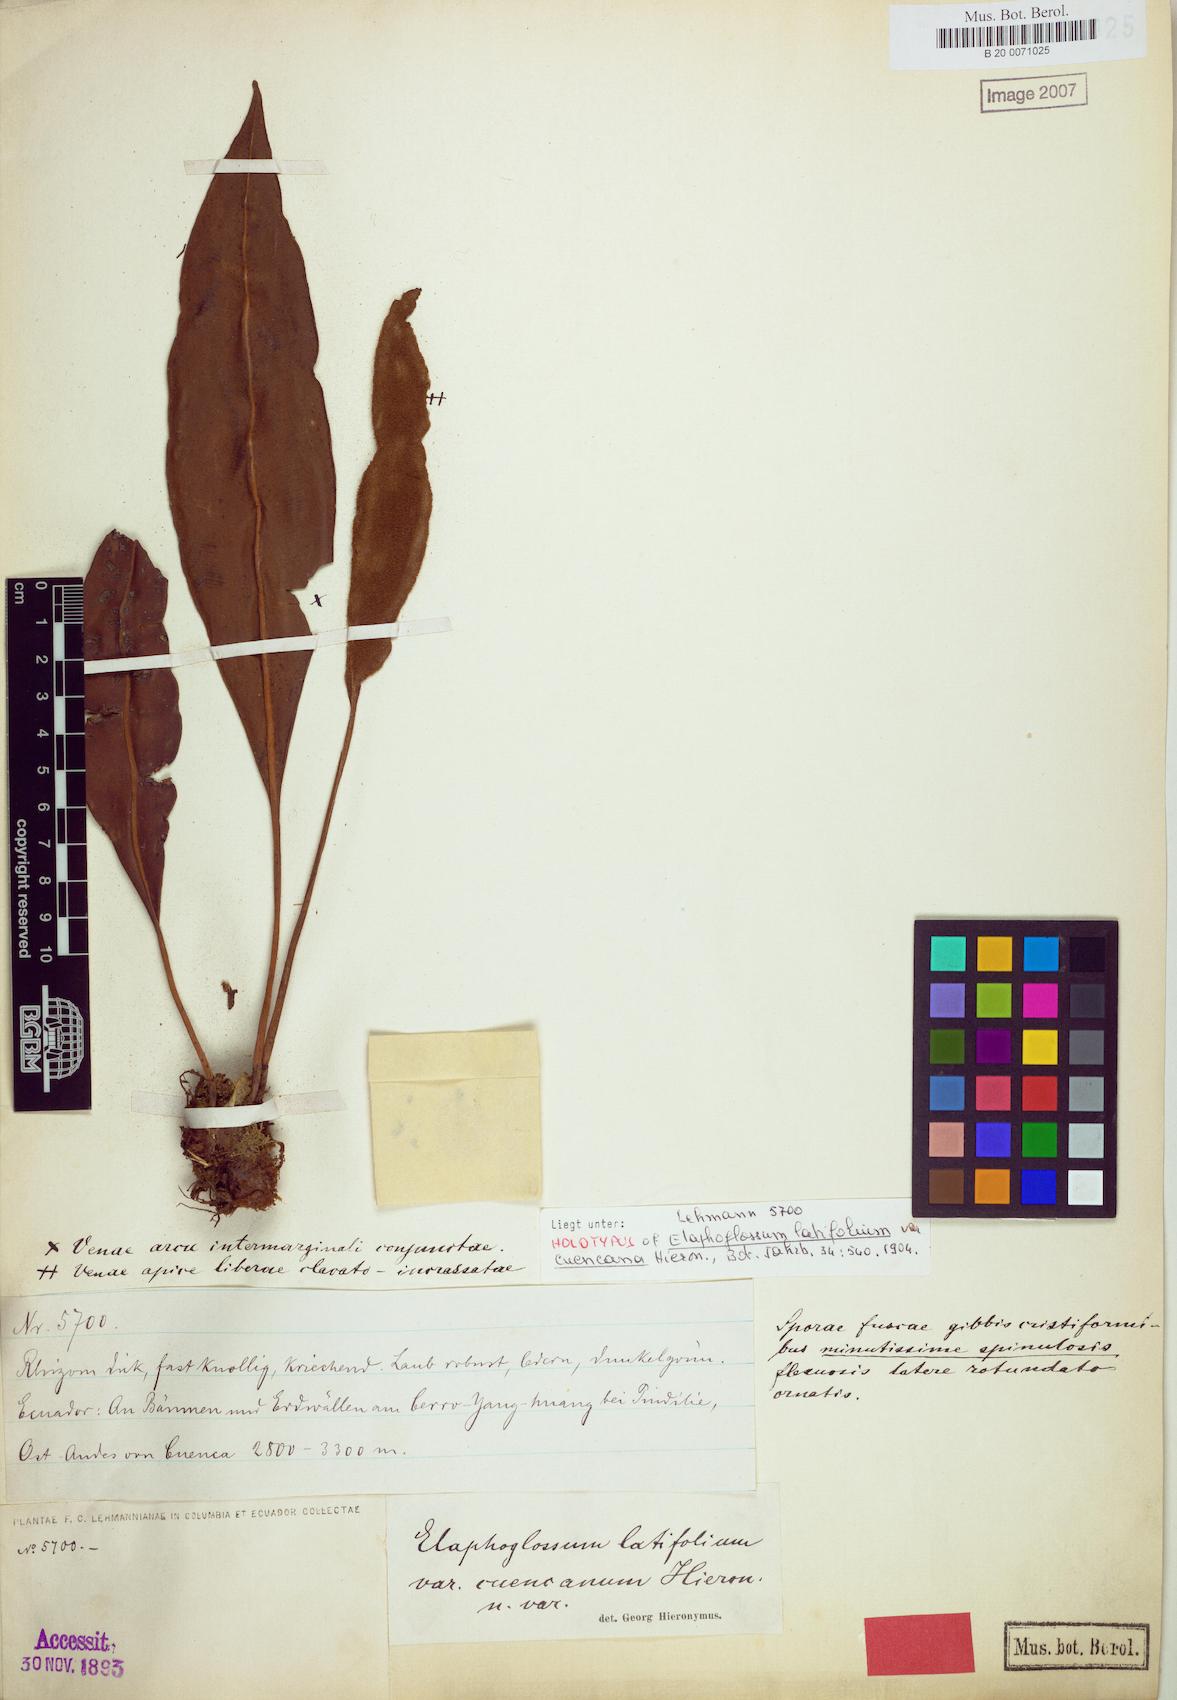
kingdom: Plantae
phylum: Tracheophyta
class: Polypodiopsida
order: Polypodiales
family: Dryopteridaceae
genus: Elaphoglossum
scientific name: Elaphoglossum latifolium
